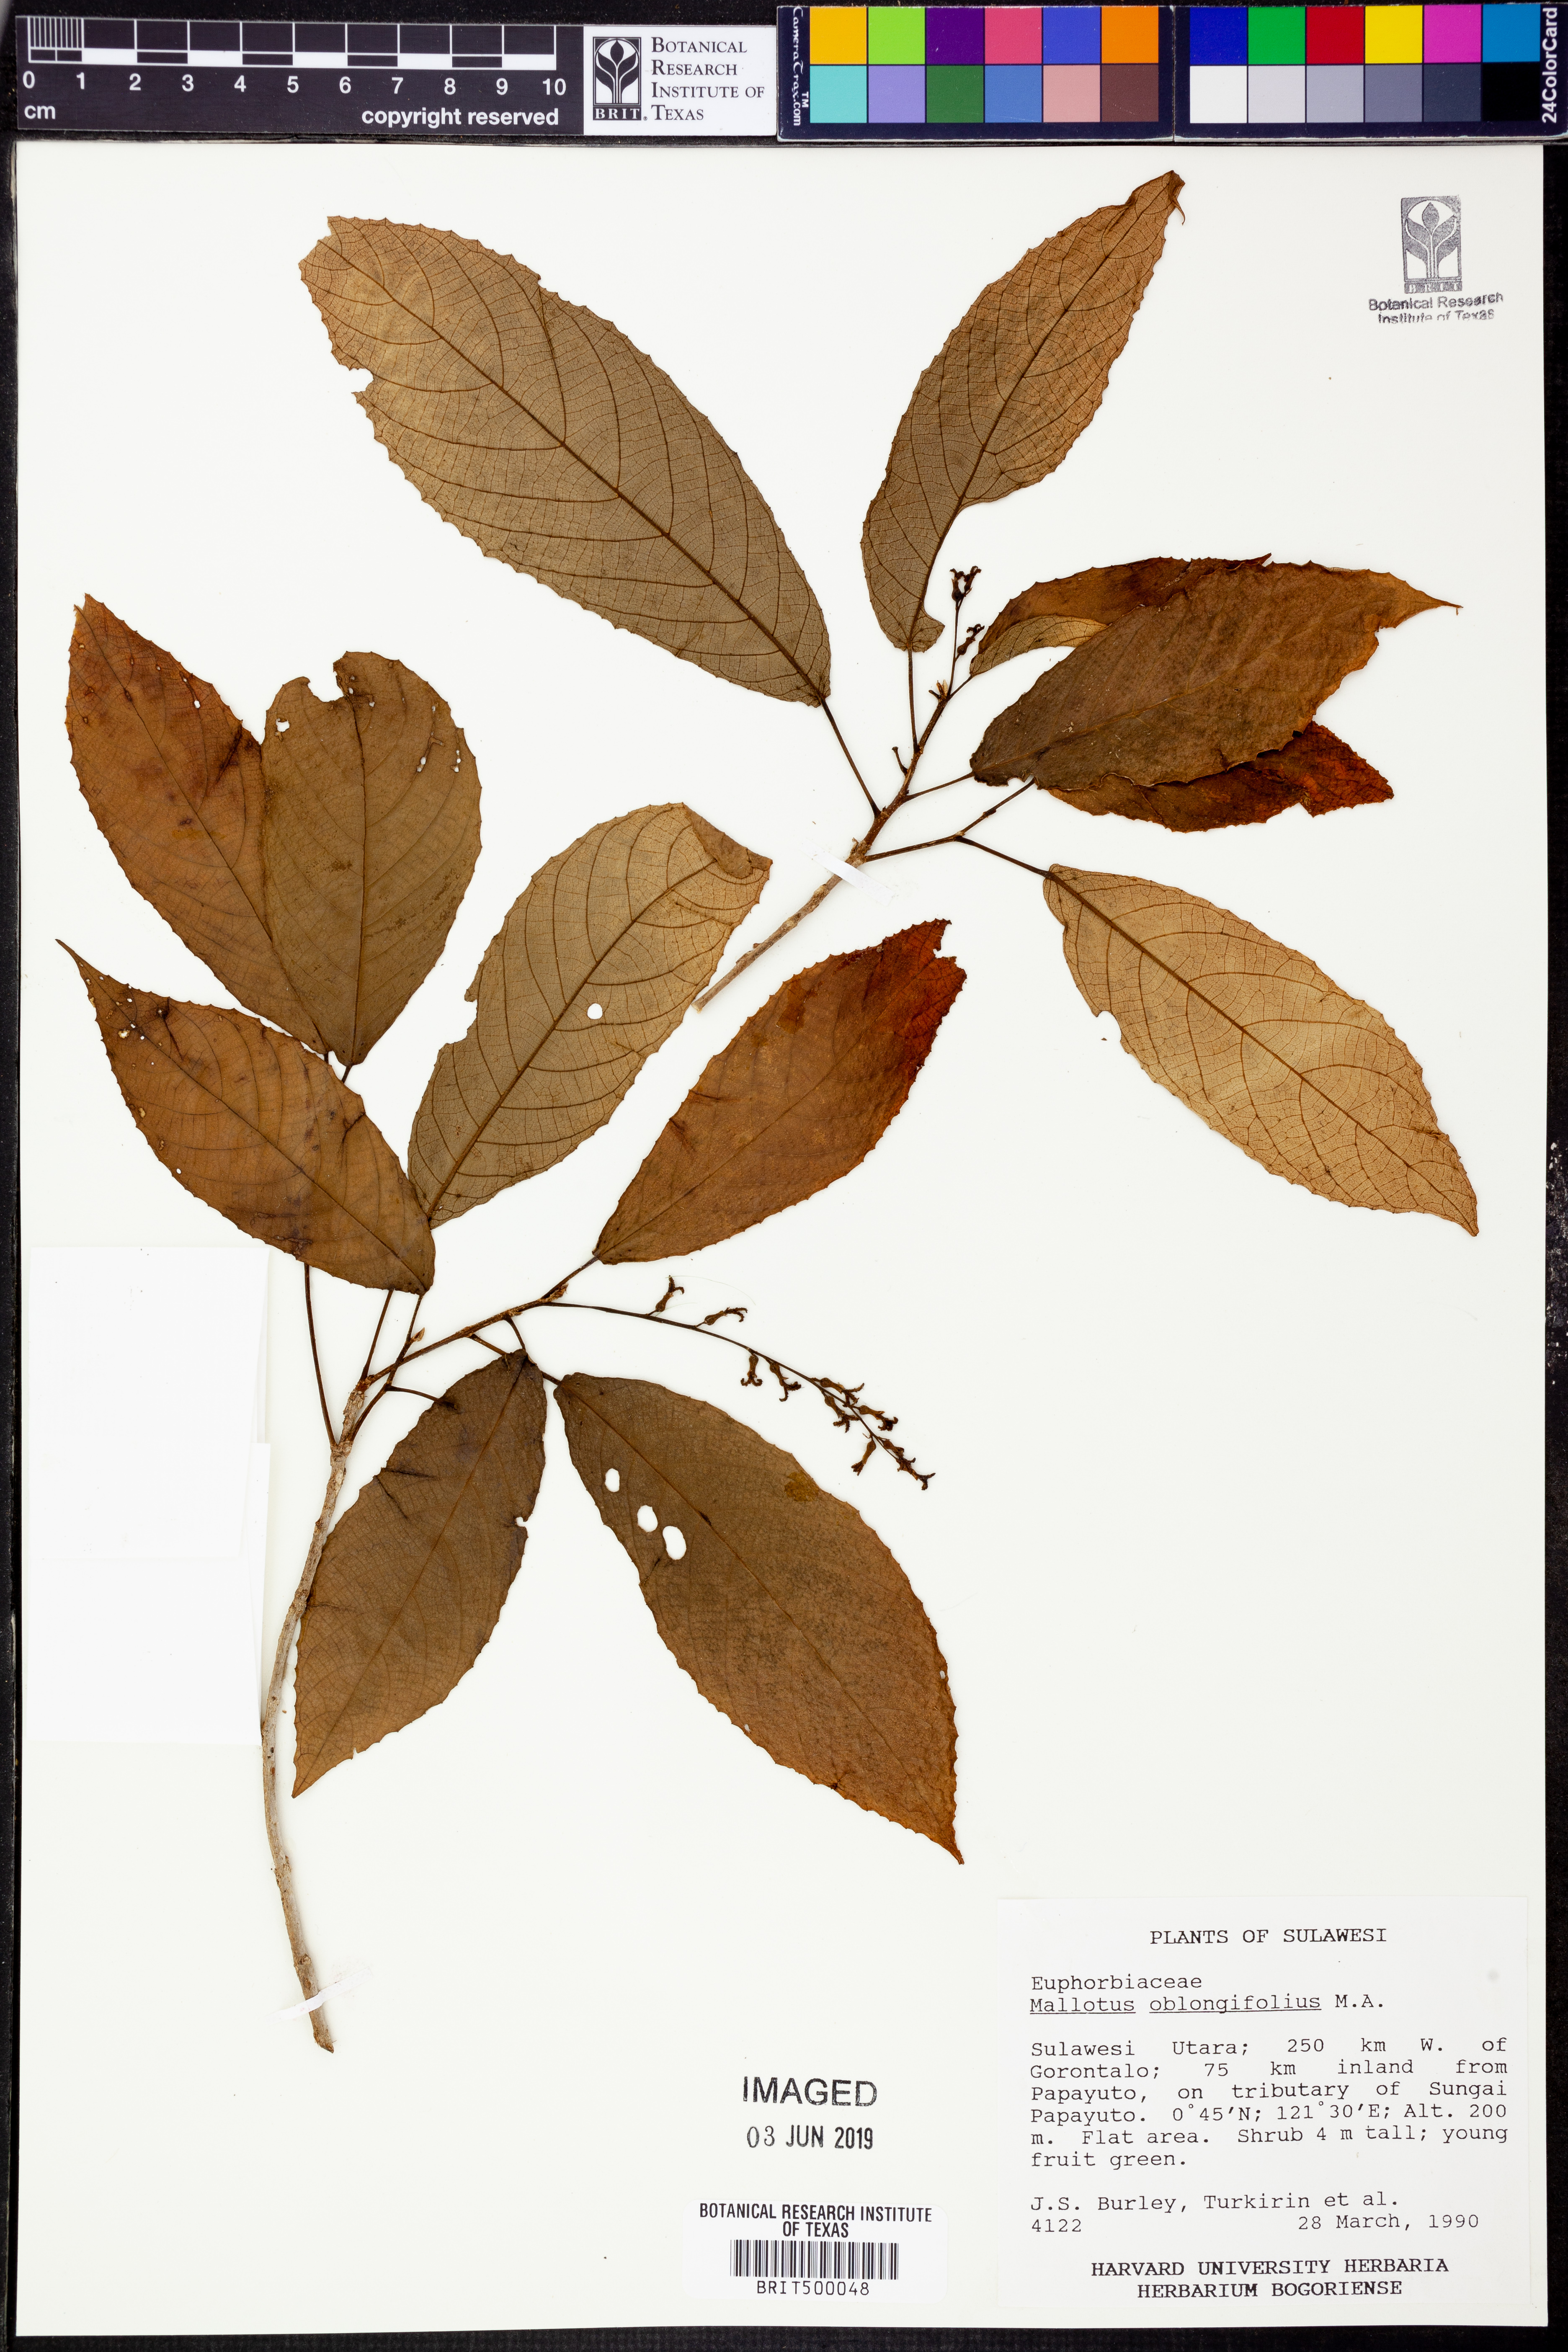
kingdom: Plantae
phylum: Tracheophyta
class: Magnoliopsida
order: Malpighiales
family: Euphorbiaceae
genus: Mallotus
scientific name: Mallotus peltatus
